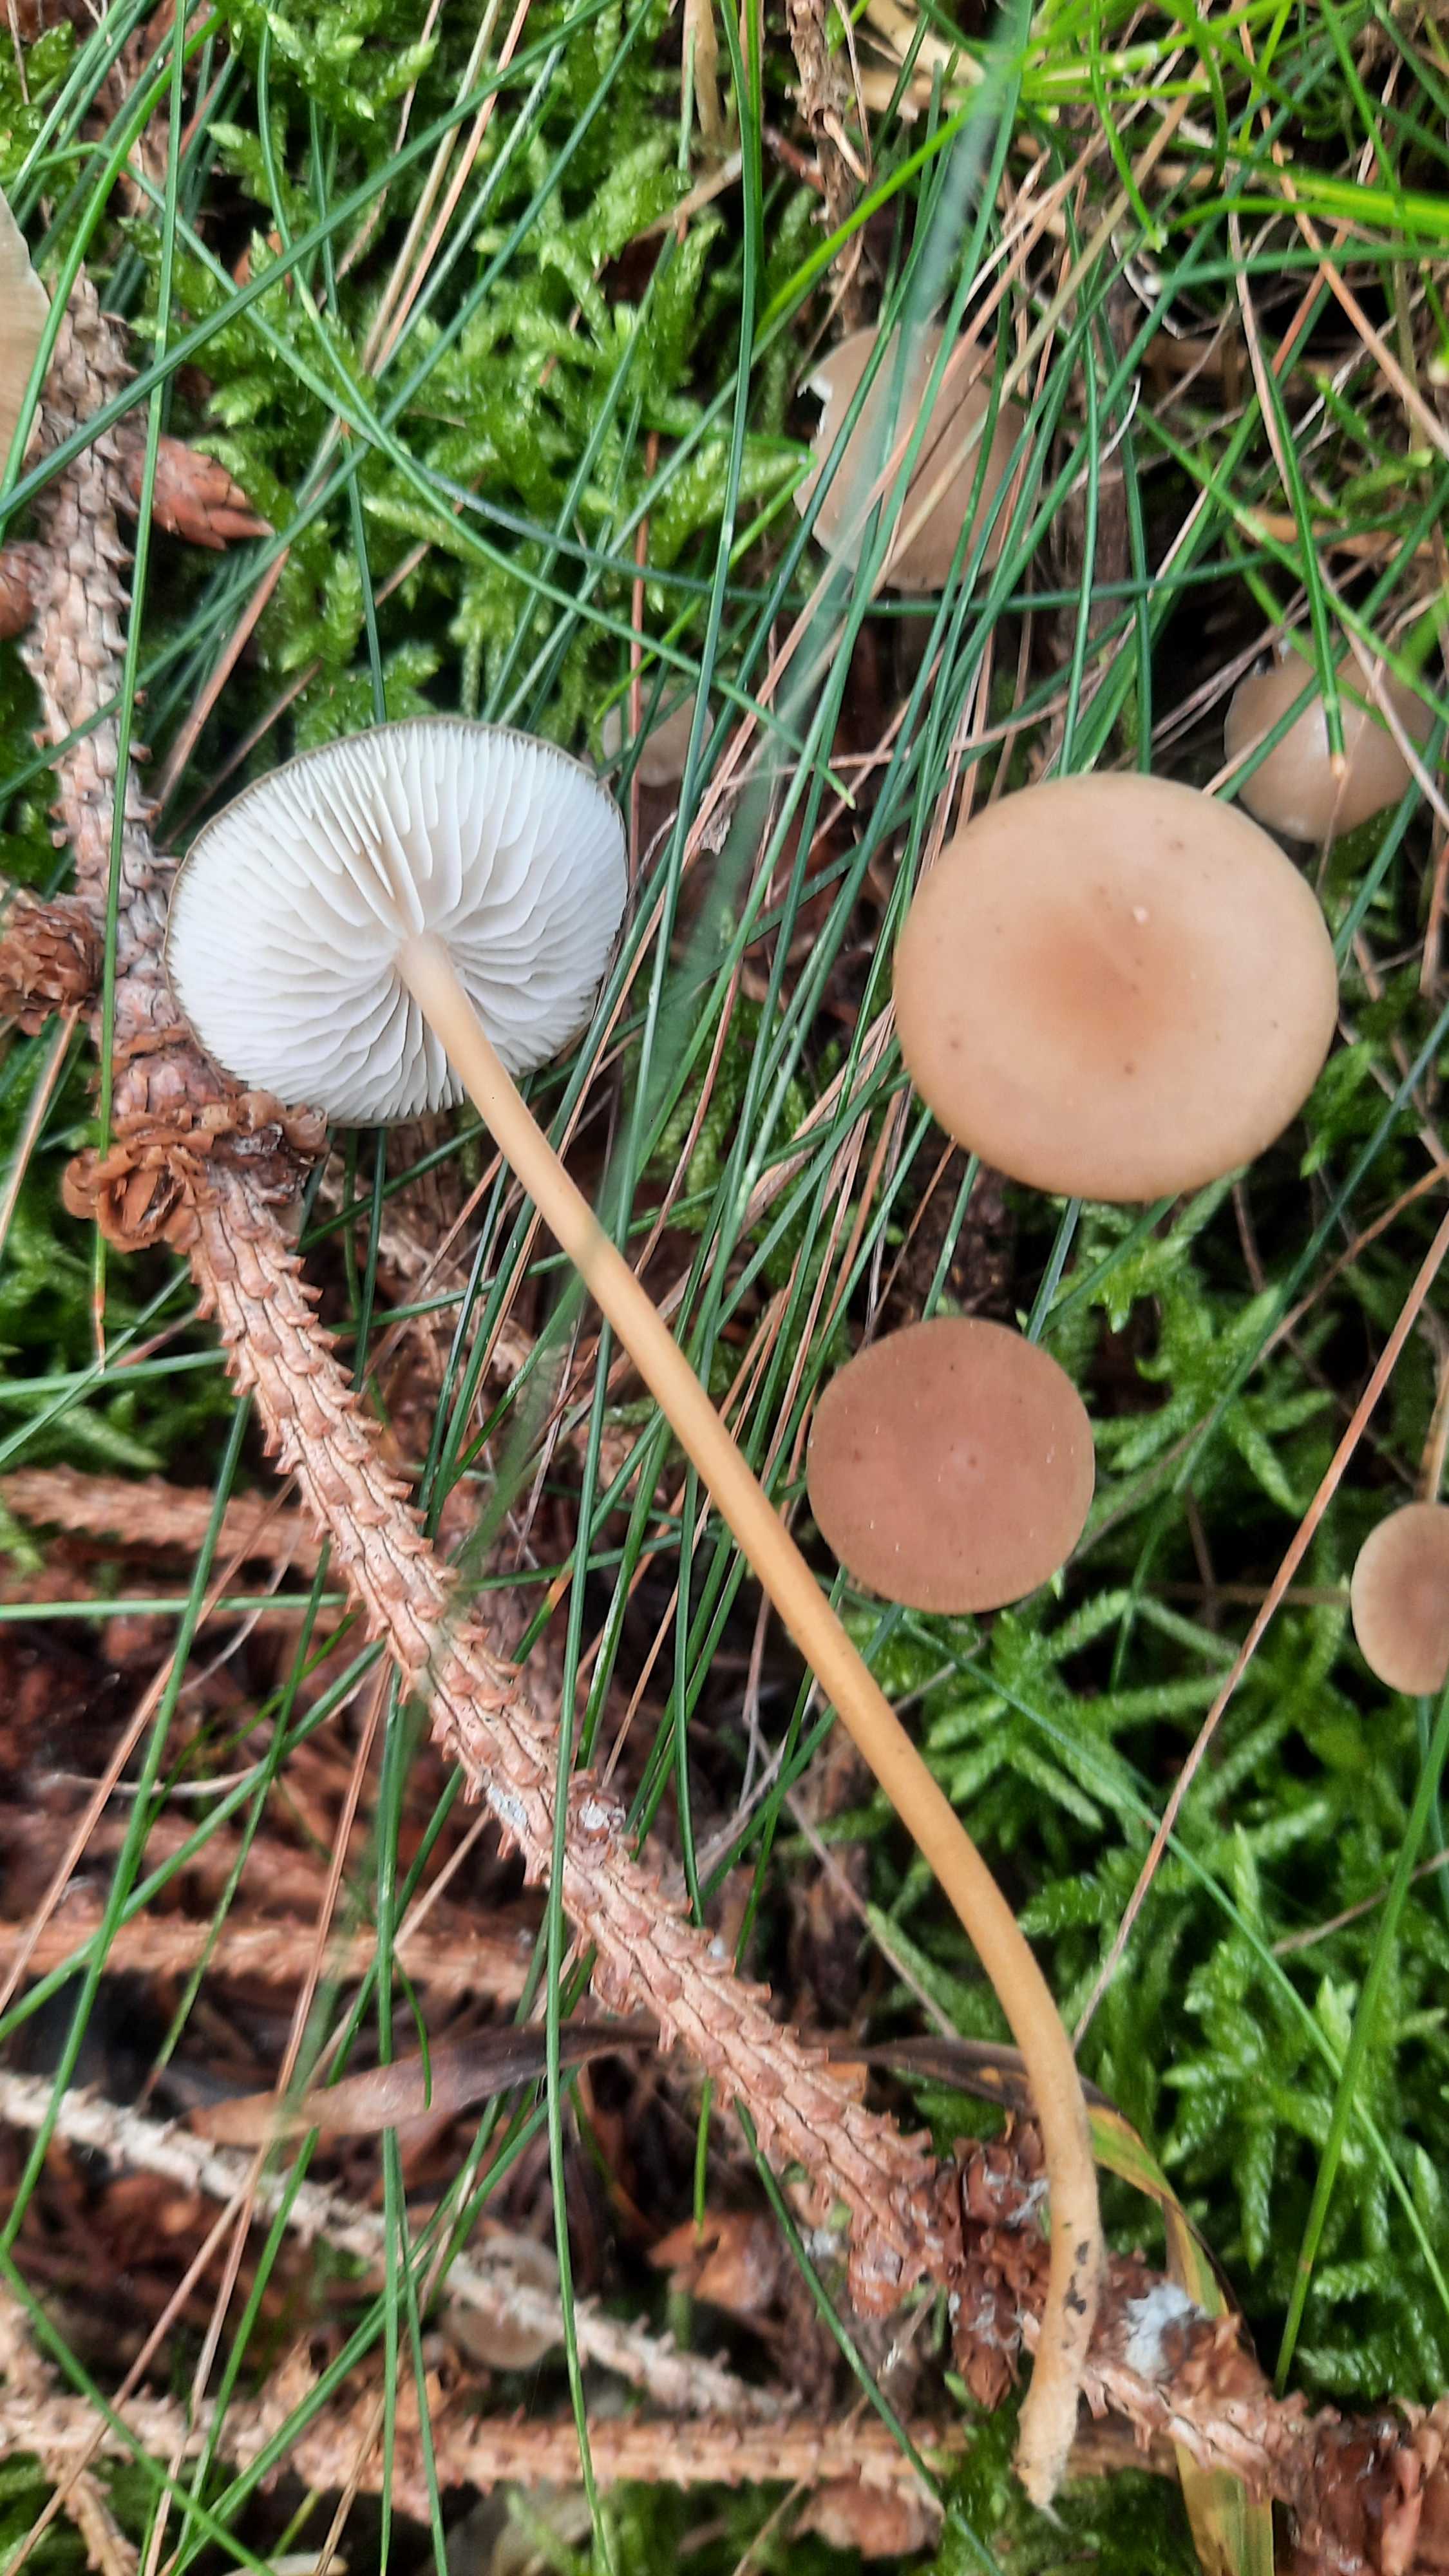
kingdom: Fungi
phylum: Basidiomycota
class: Agaricomycetes
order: Agaricales
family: Physalacriaceae
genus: Strobilurus
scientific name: Strobilurus esculentus
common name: gran-koglehat
